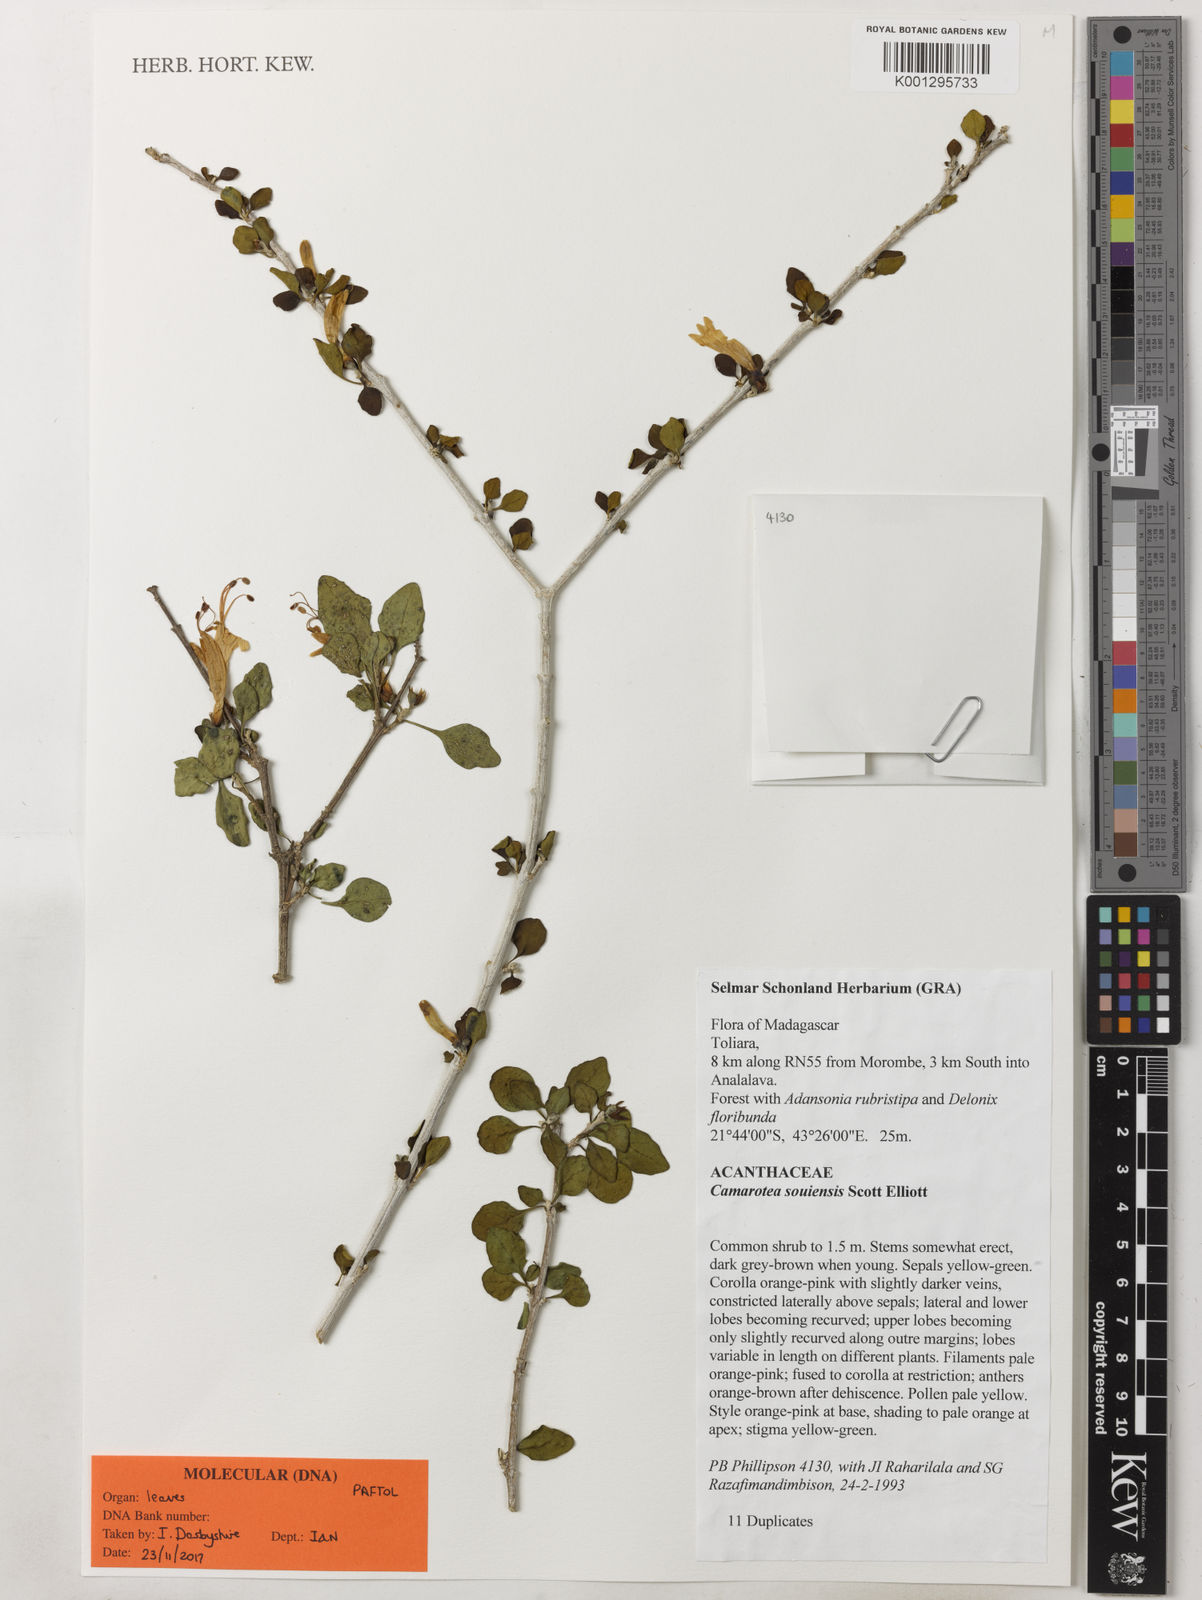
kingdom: Plantae
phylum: Tracheophyta
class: Magnoliopsida
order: Lamiales
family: Acanthaceae
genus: Camarotea
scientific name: Camarotea souiensis
